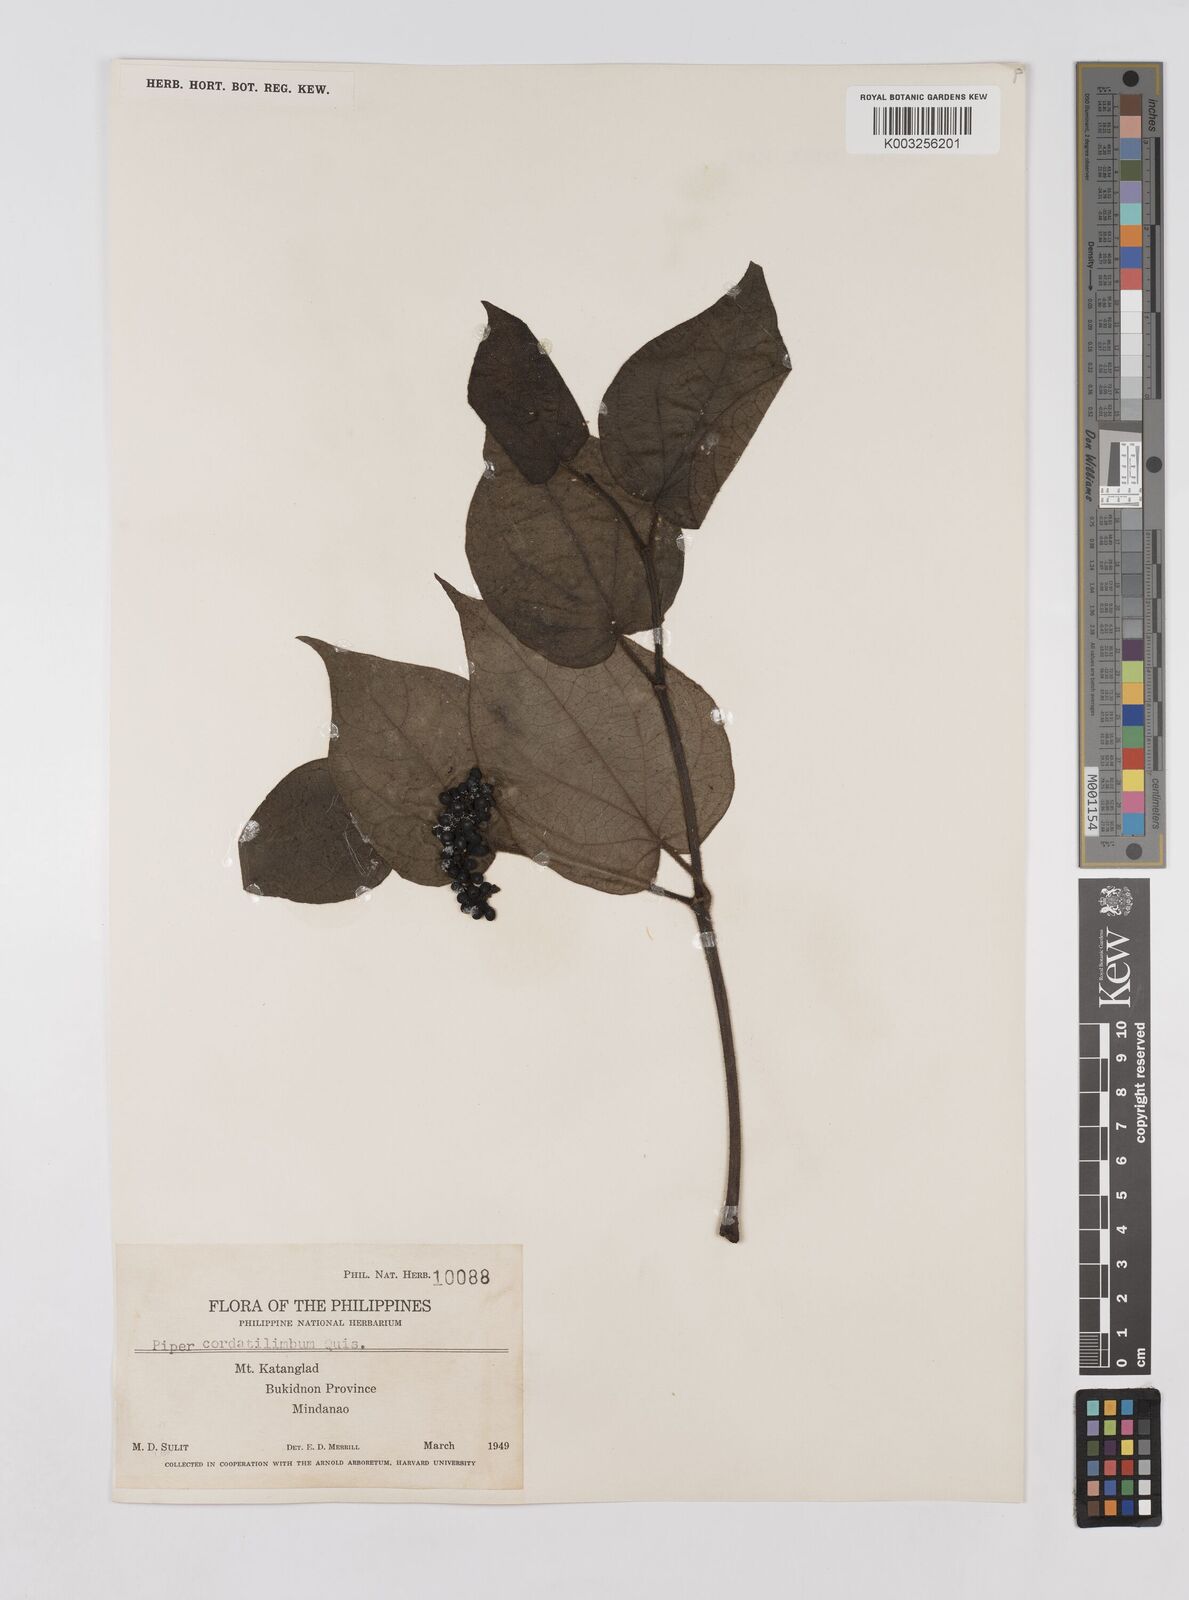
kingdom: Plantae
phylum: Tracheophyta
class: Magnoliopsida
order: Piperales
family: Piperaceae
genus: Piper
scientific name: Piper cordatilimbum
